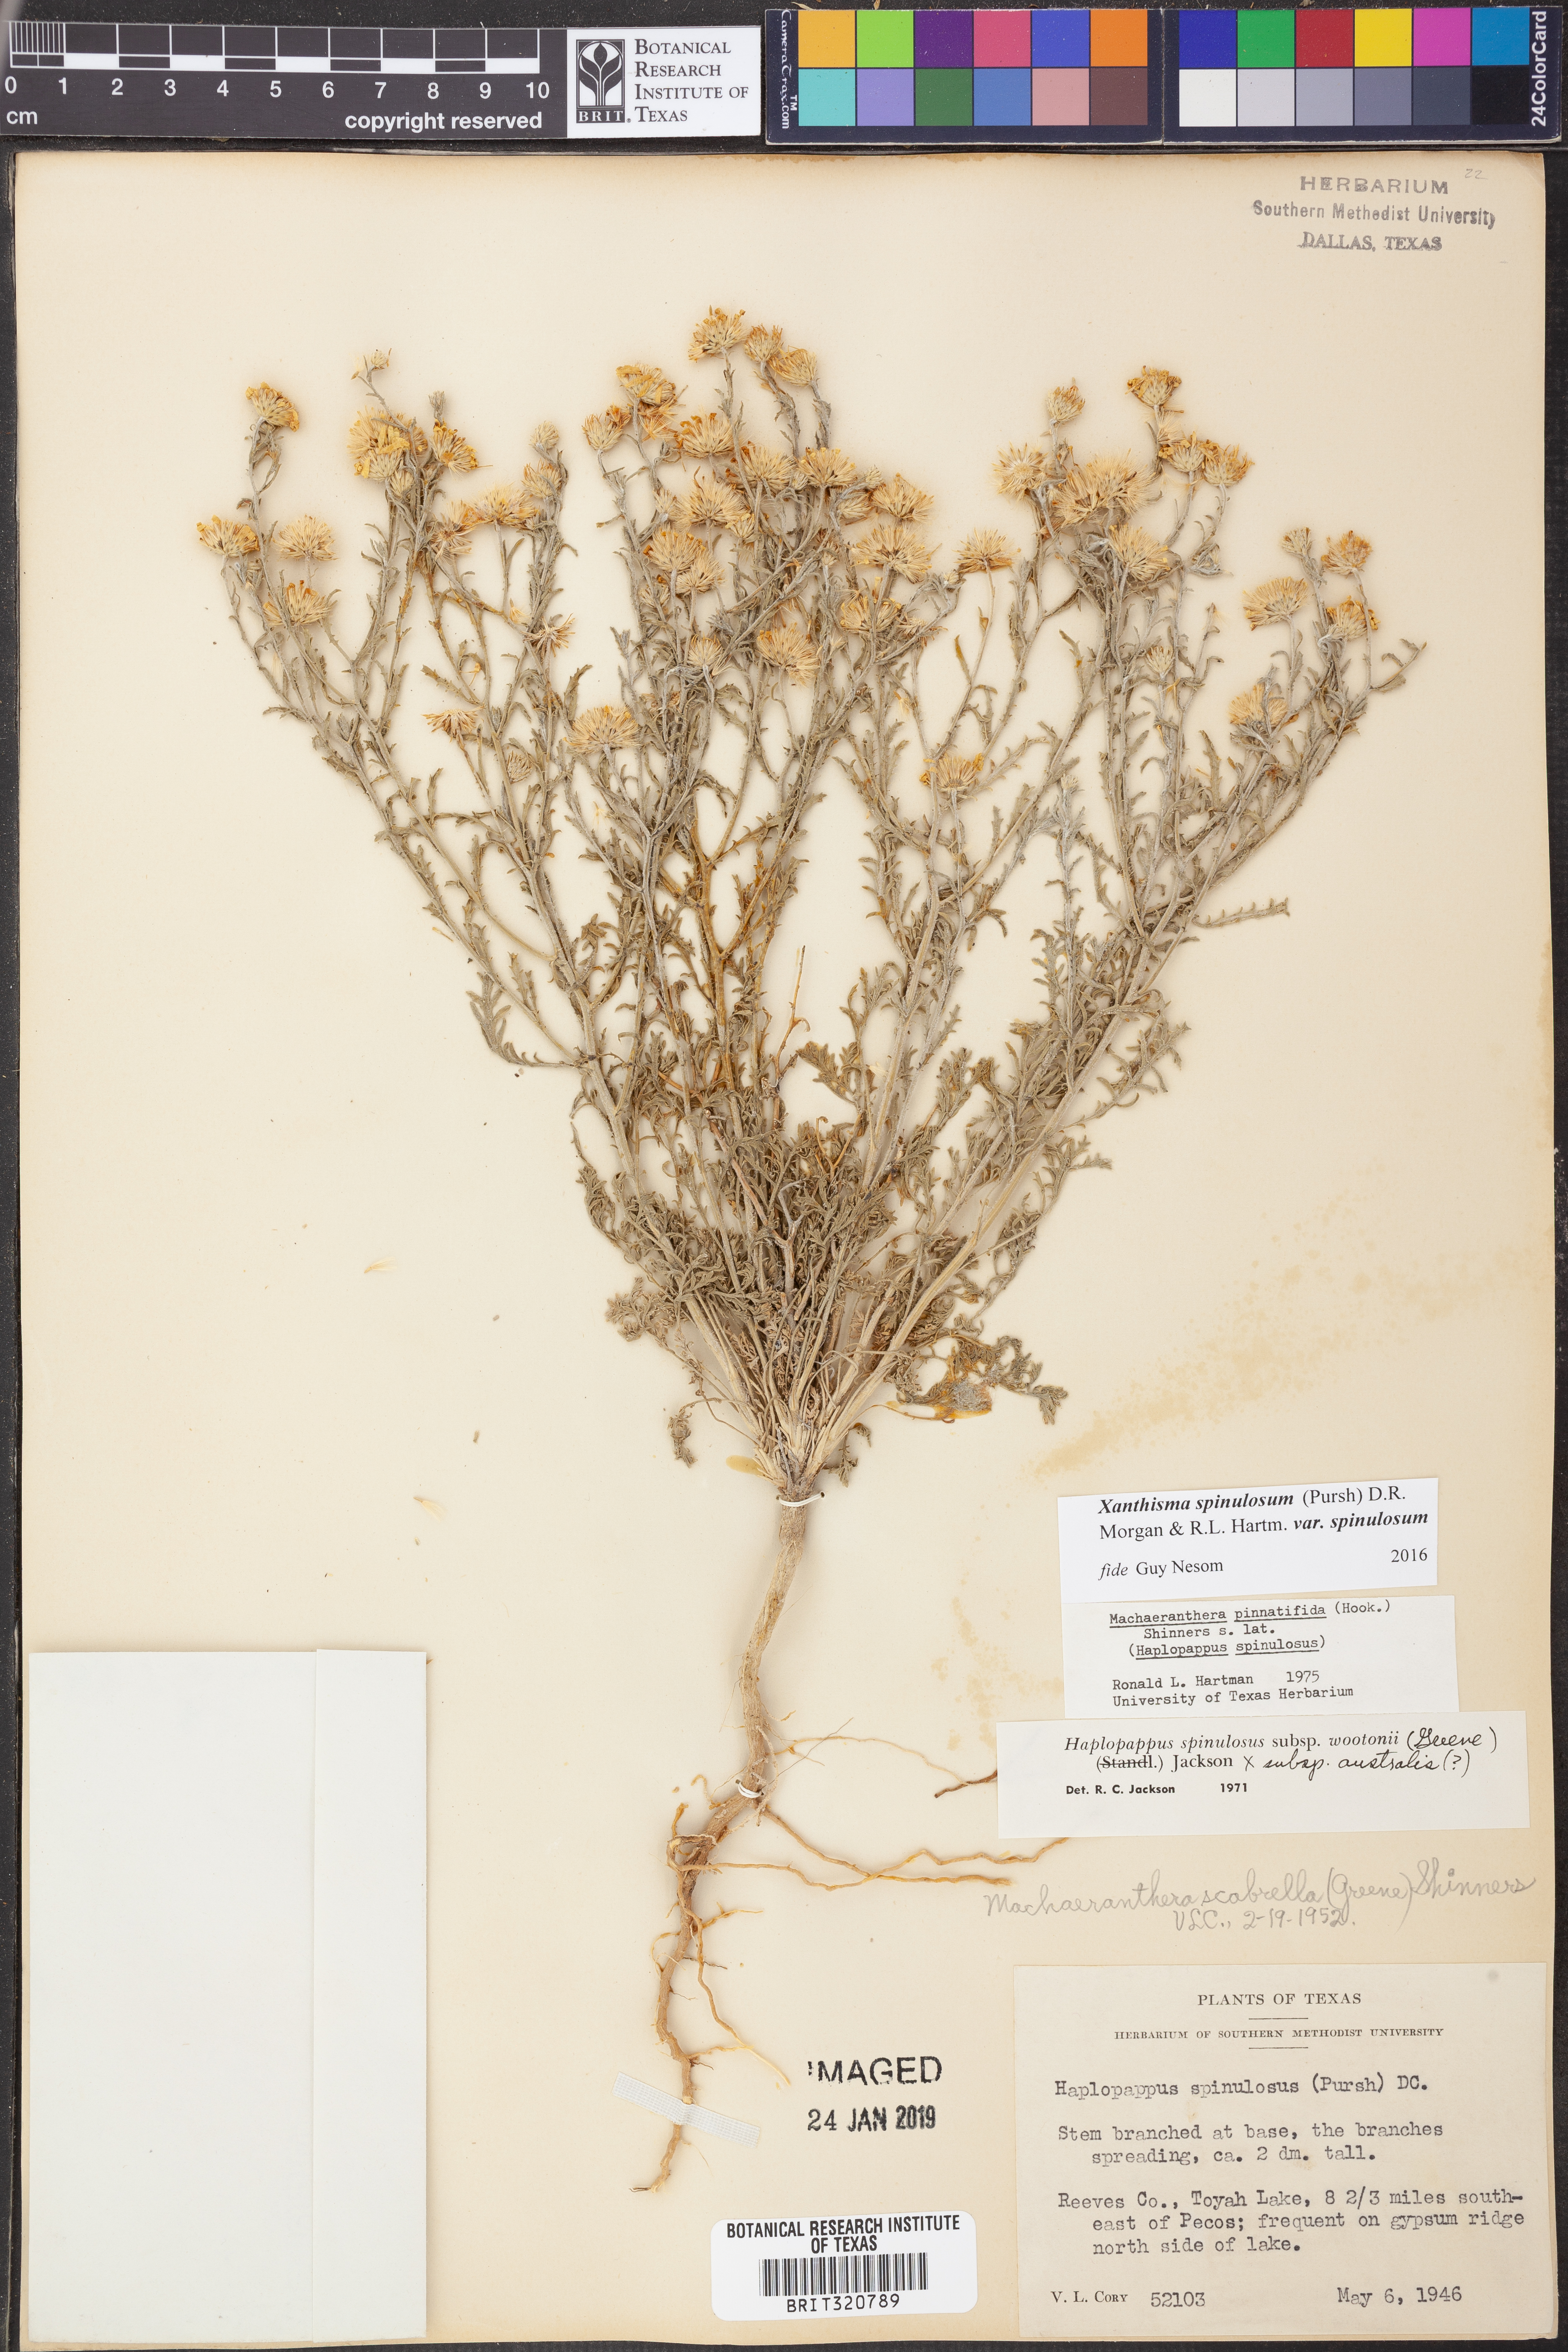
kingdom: Plantae
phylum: Tracheophyta
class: Magnoliopsida
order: Asterales
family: Asteraceae
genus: Xanthisma
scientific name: Xanthisma spinulosum
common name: Spiny goldenweed
